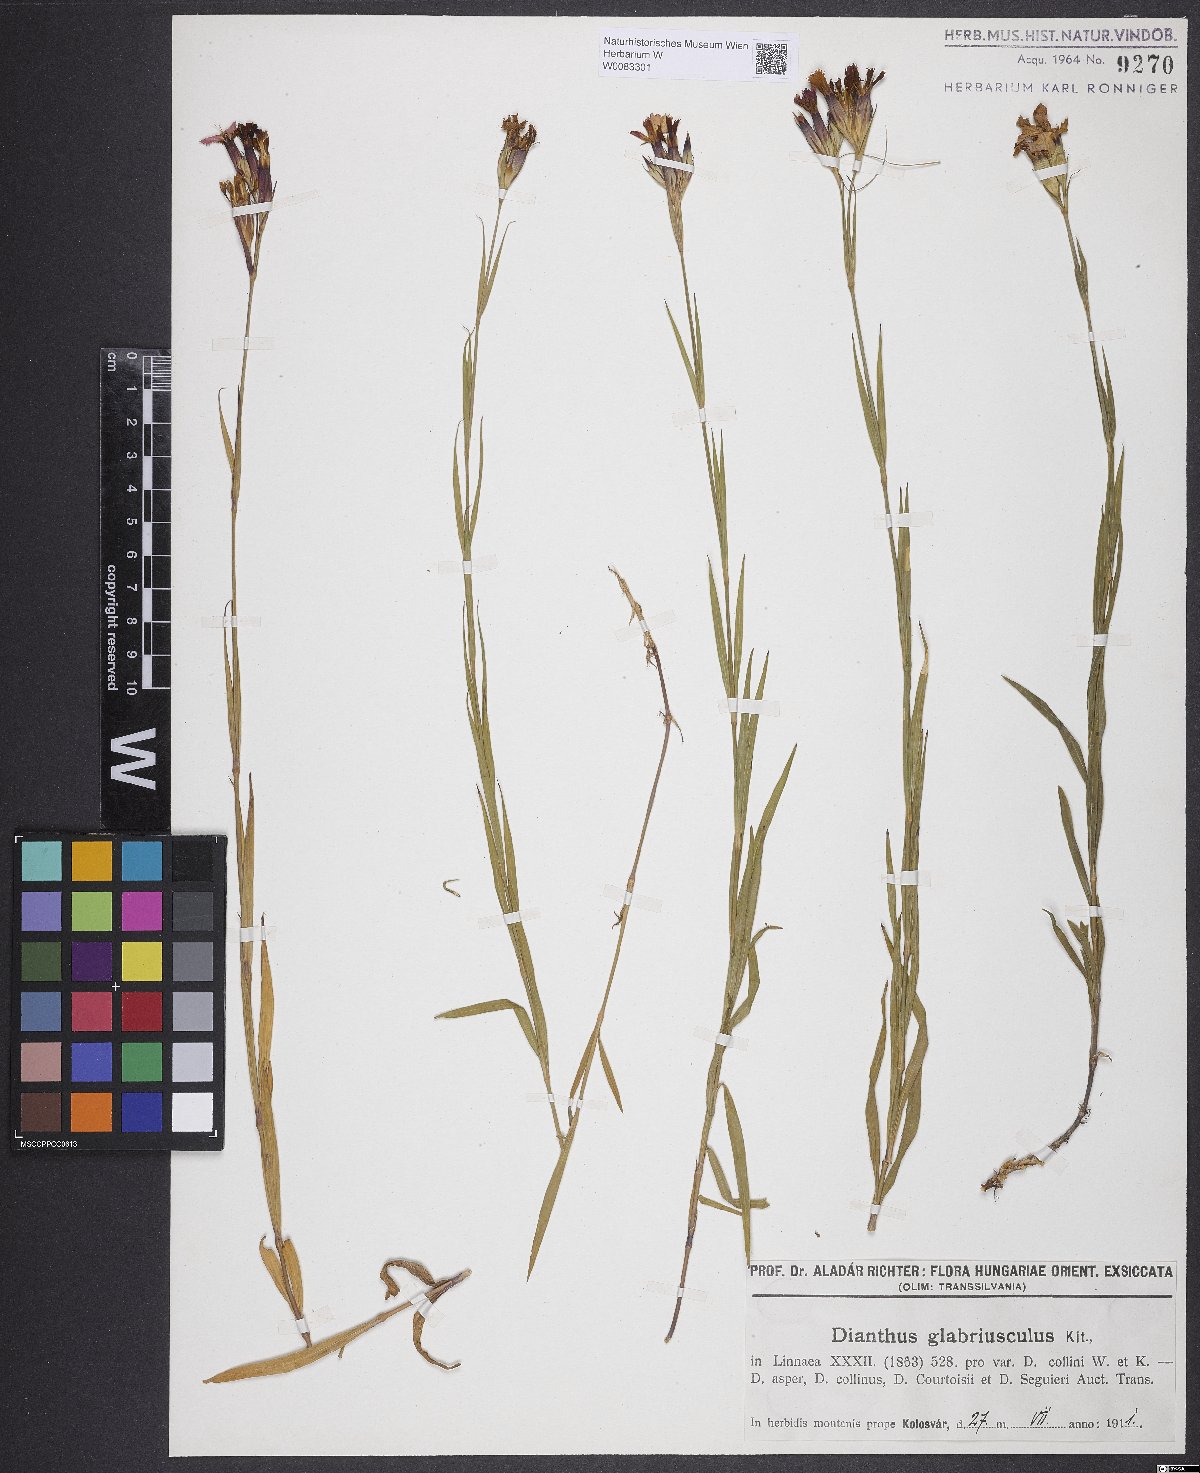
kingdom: Plantae
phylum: Tracheophyta
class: Magnoliopsida
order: Caryophyllales
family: Caryophyllaceae
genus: Dianthus
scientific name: Dianthus collinus
